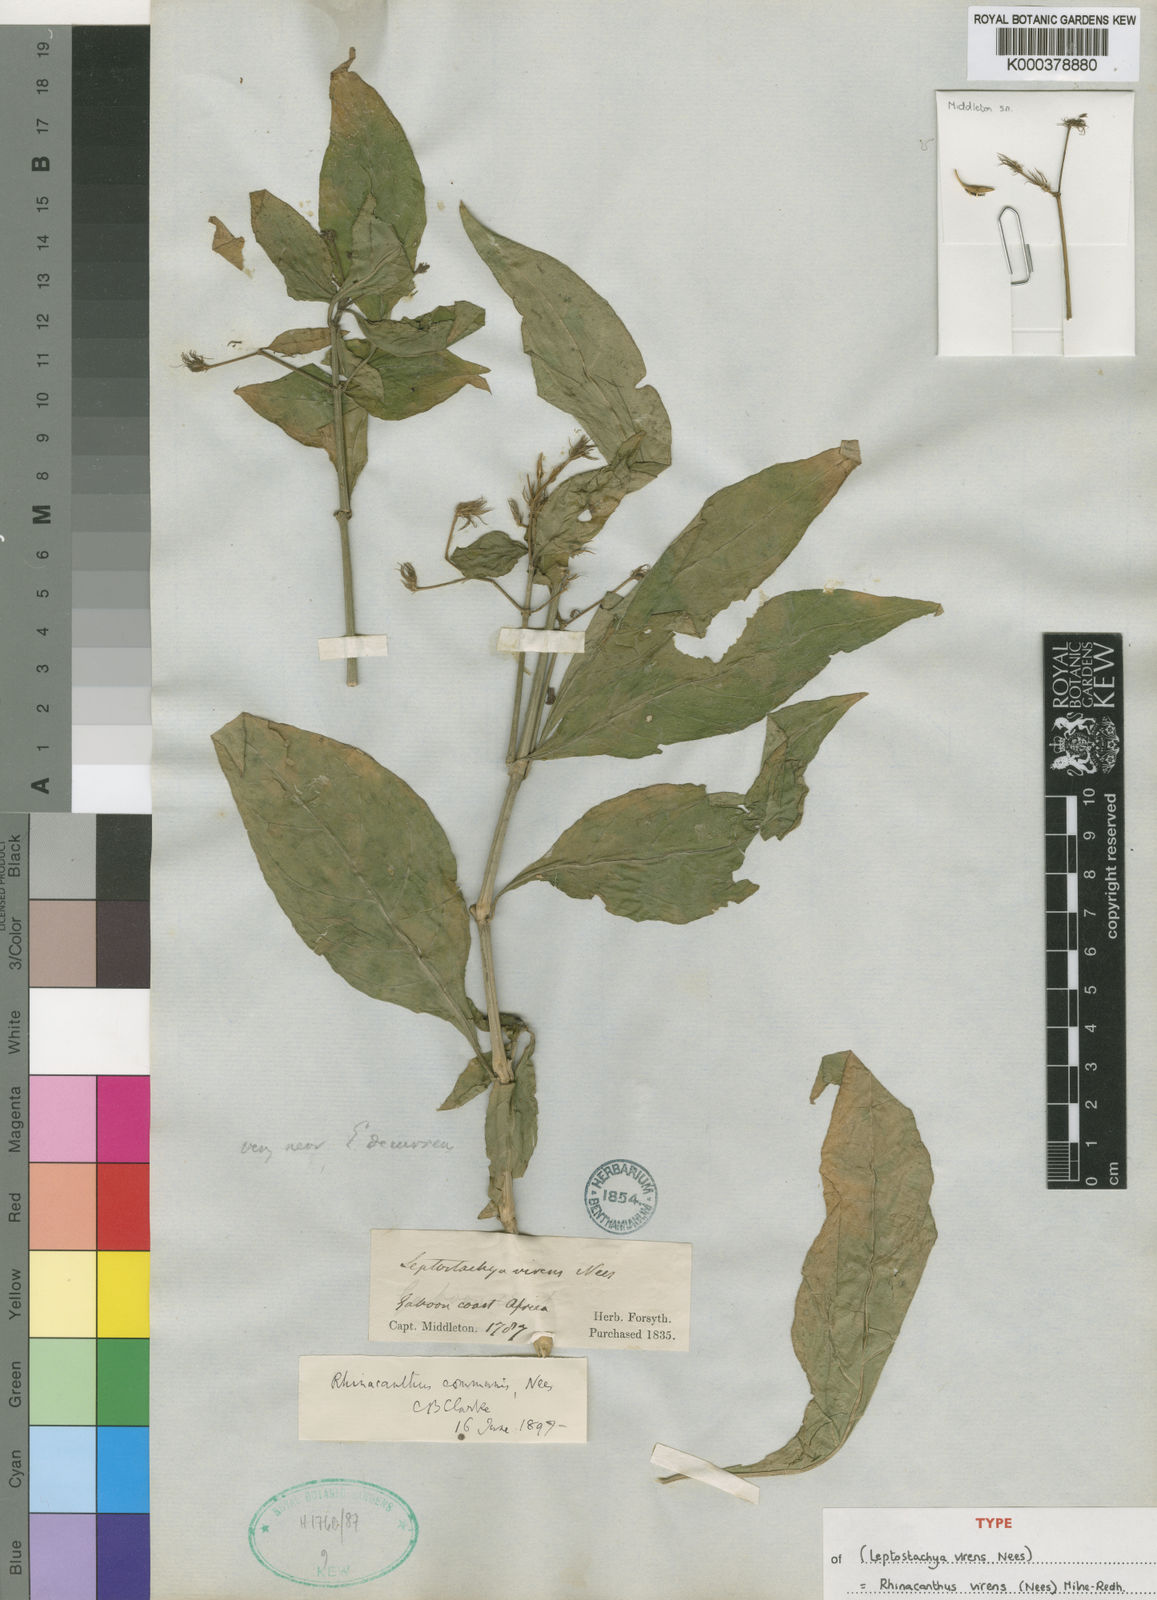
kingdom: Plantae
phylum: Tracheophyta
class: Magnoliopsida
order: Lamiales
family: Acanthaceae
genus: Rhinacanthus
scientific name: Rhinacanthus virens
